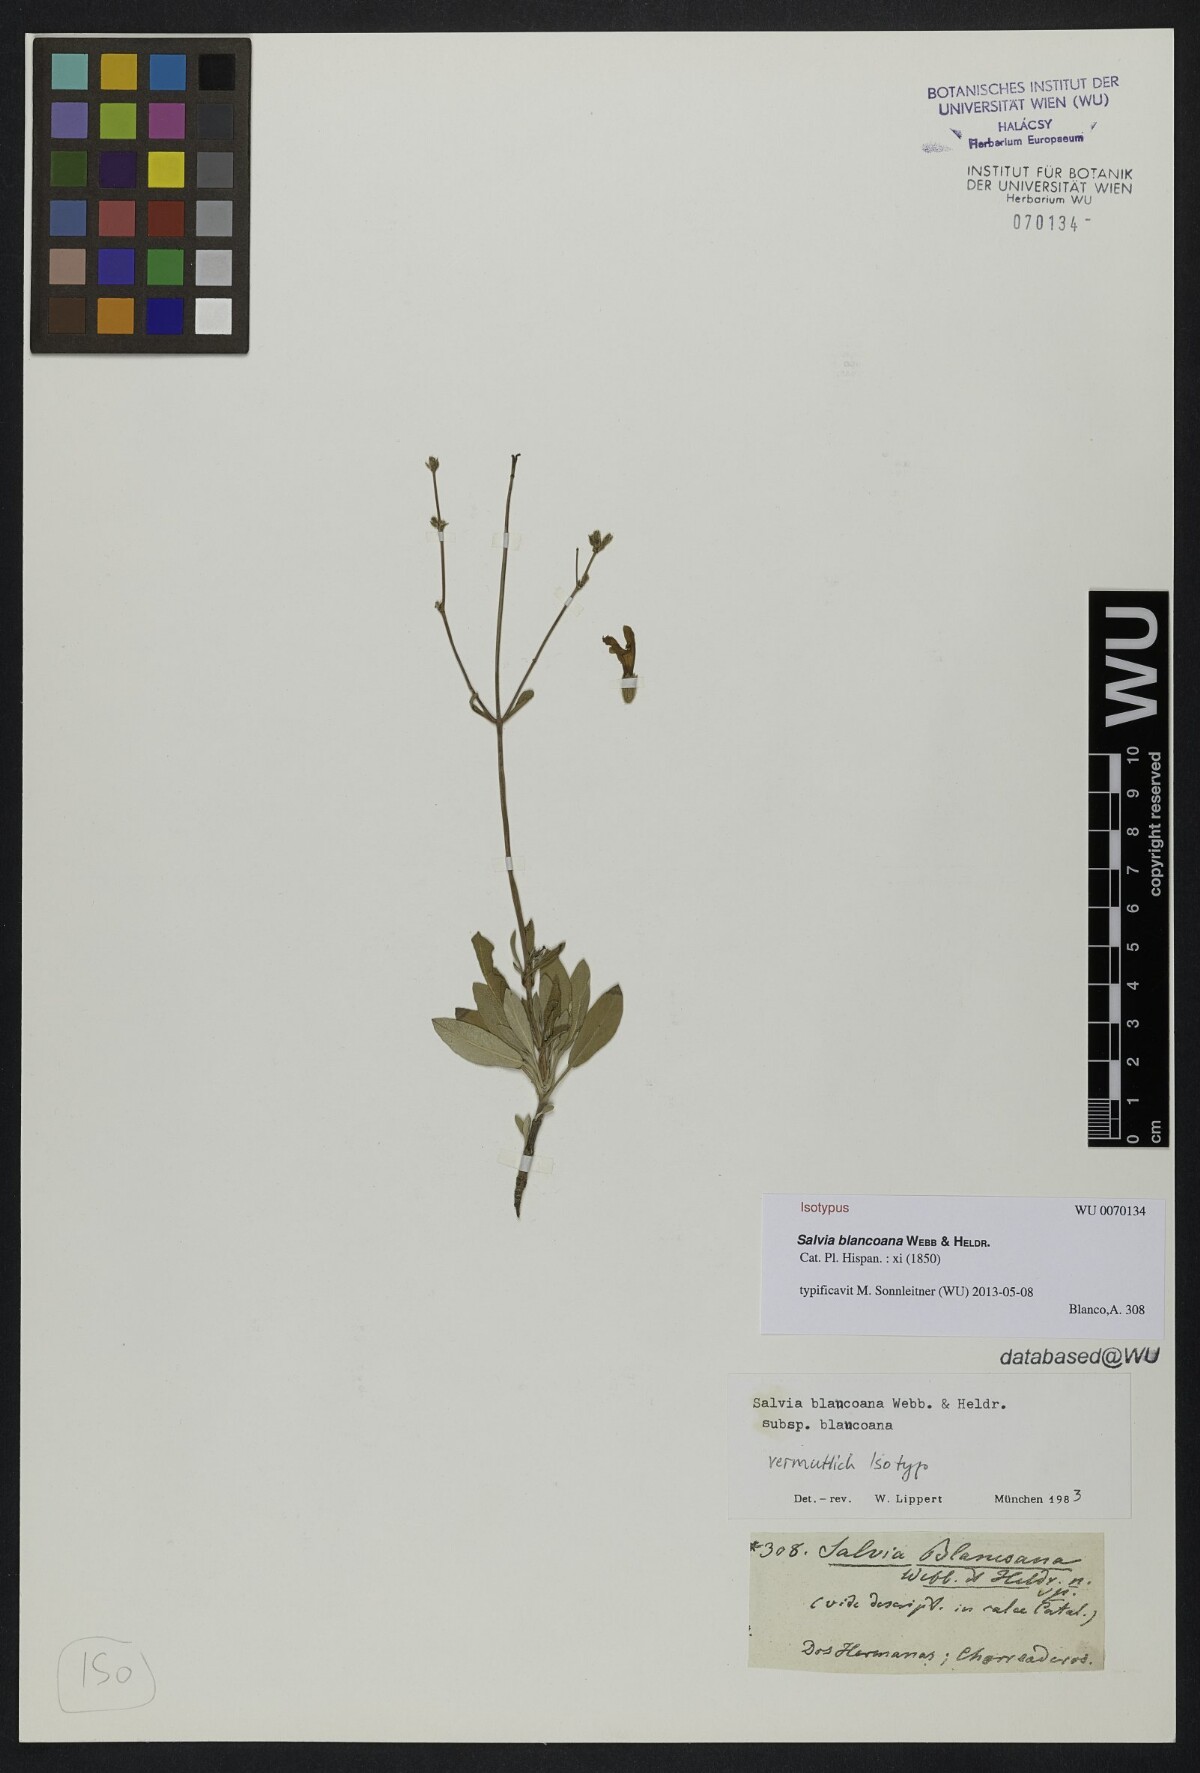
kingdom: Plantae
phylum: Tracheophyta
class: Magnoliopsida
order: Lamiales
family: Lamiaceae
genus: Salvia
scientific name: Salvia blancoana
